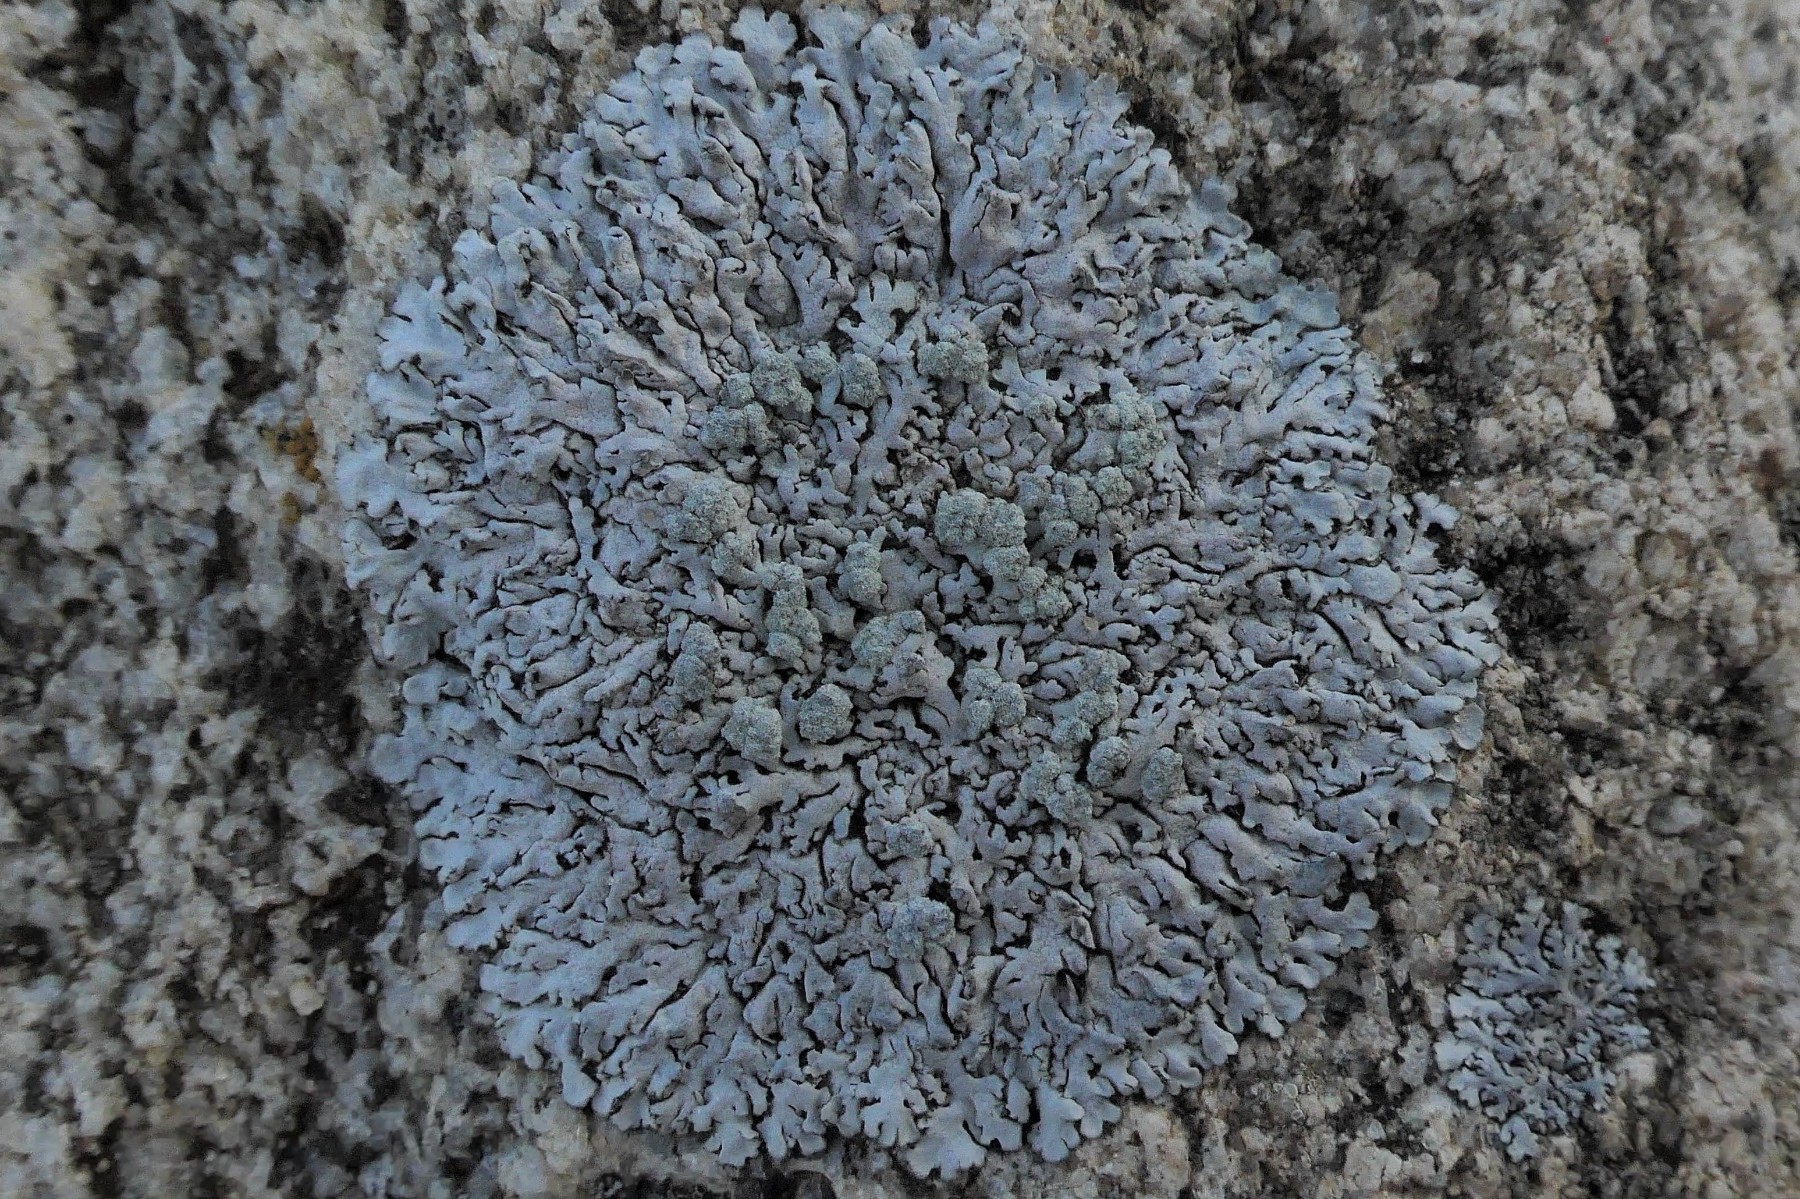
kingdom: Fungi
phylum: Ascomycota
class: Lecanoromycetes
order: Caliciales
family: Physciaceae
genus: Physcia
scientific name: Physcia caesia
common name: blågrå rosetlav
